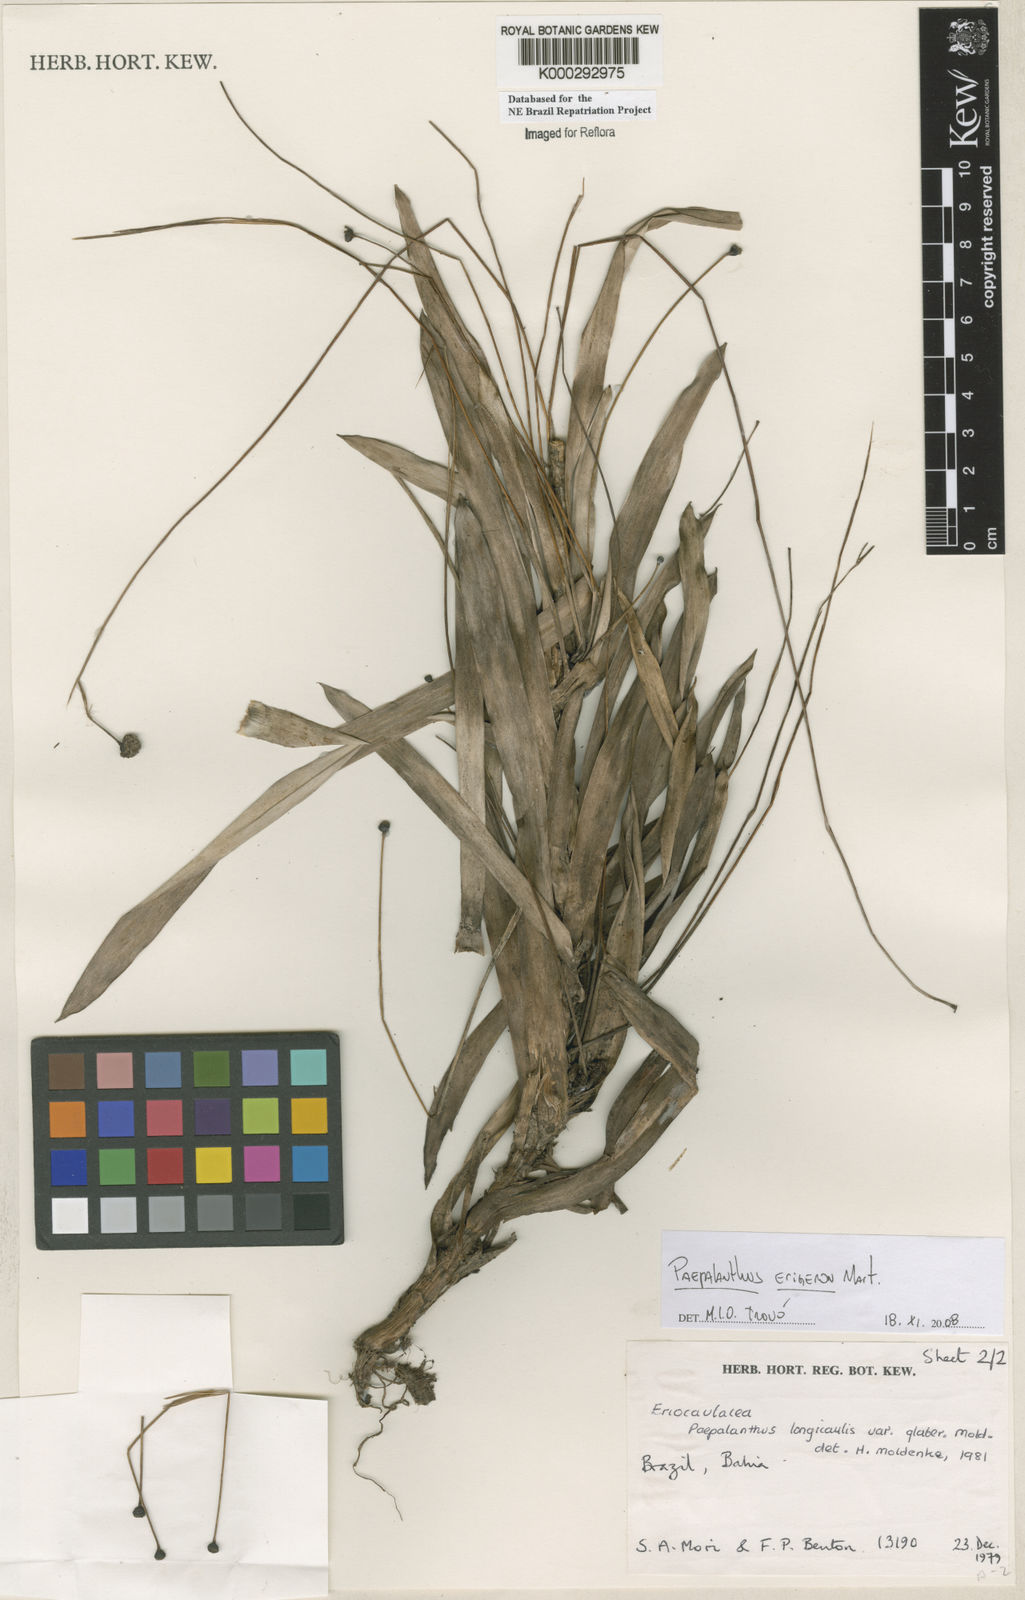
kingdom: Plantae
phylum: Tracheophyta
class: Liliopsida
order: Poales
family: Eriocaulaceae
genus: Paepalanthus
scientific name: Paepalanthus
